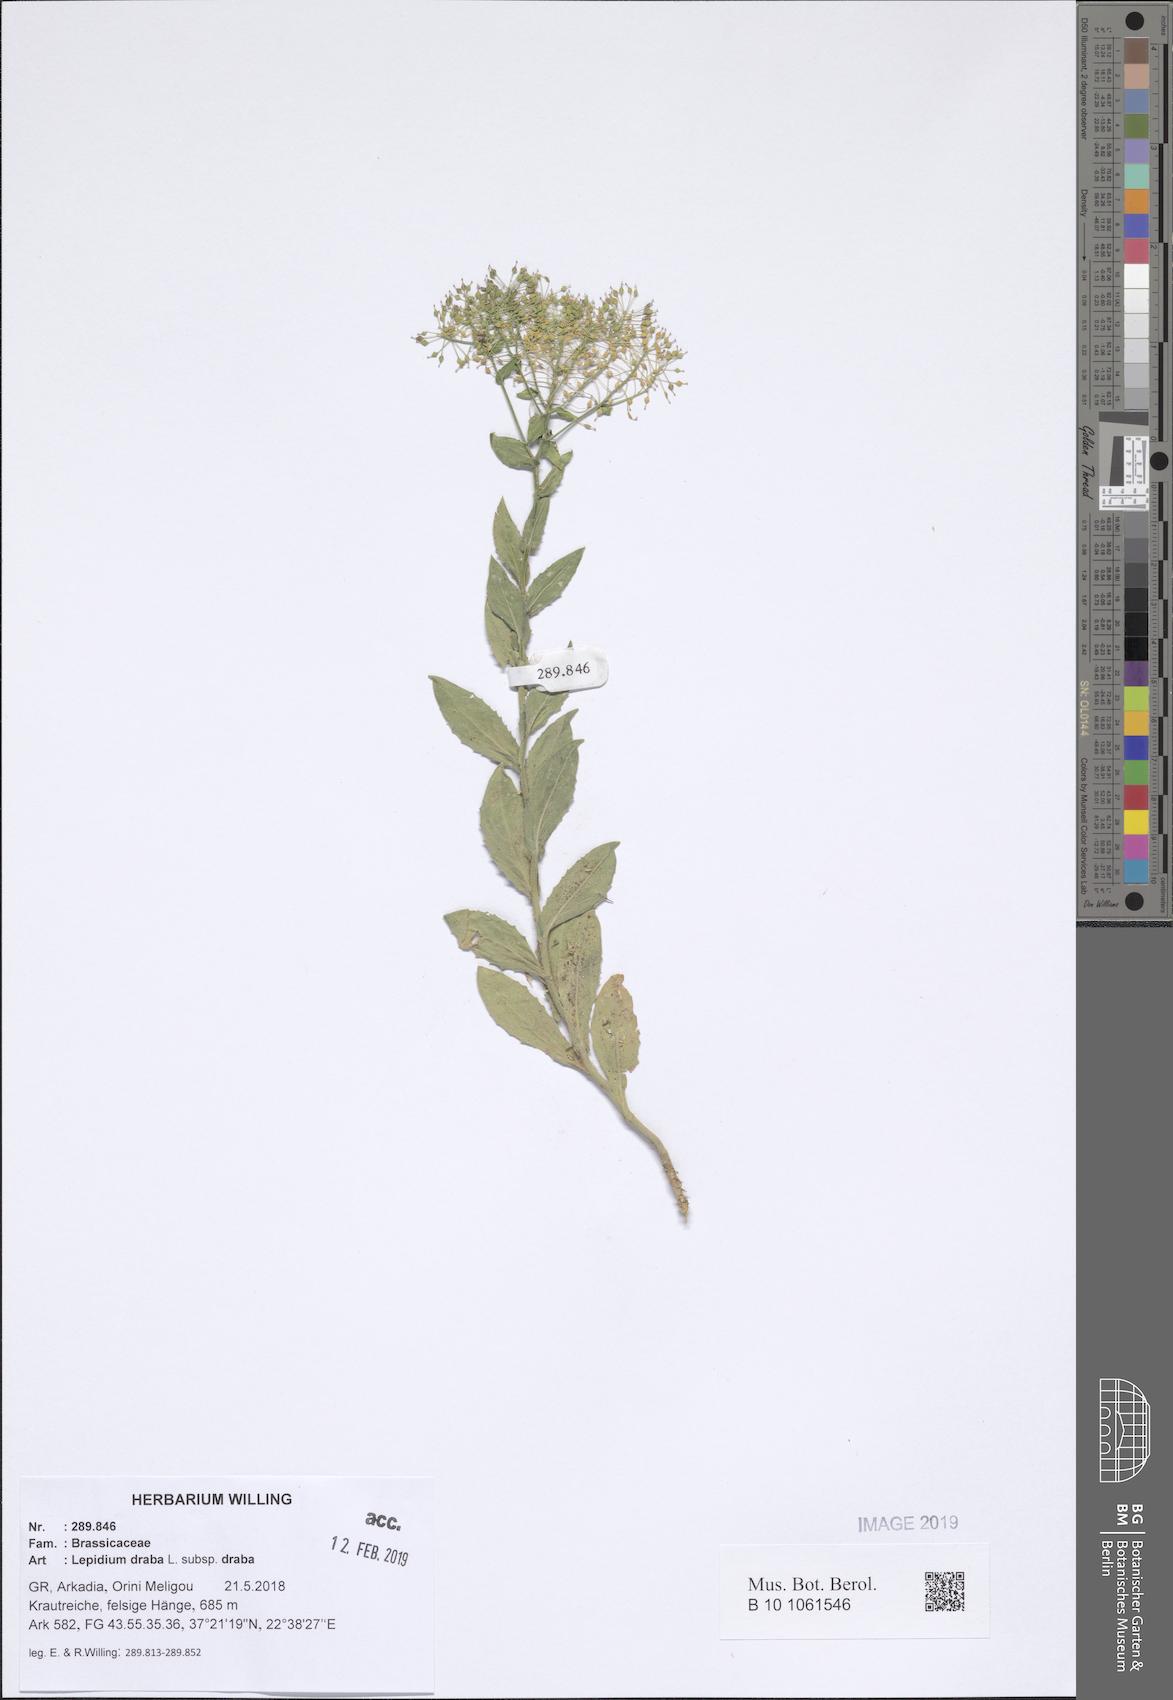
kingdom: Plantae
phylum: Tracheophyta
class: Magnoliopsida
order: Brassicales
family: Brassicaceae
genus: Lepidium
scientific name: Lepidium draba
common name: Hoary cress
